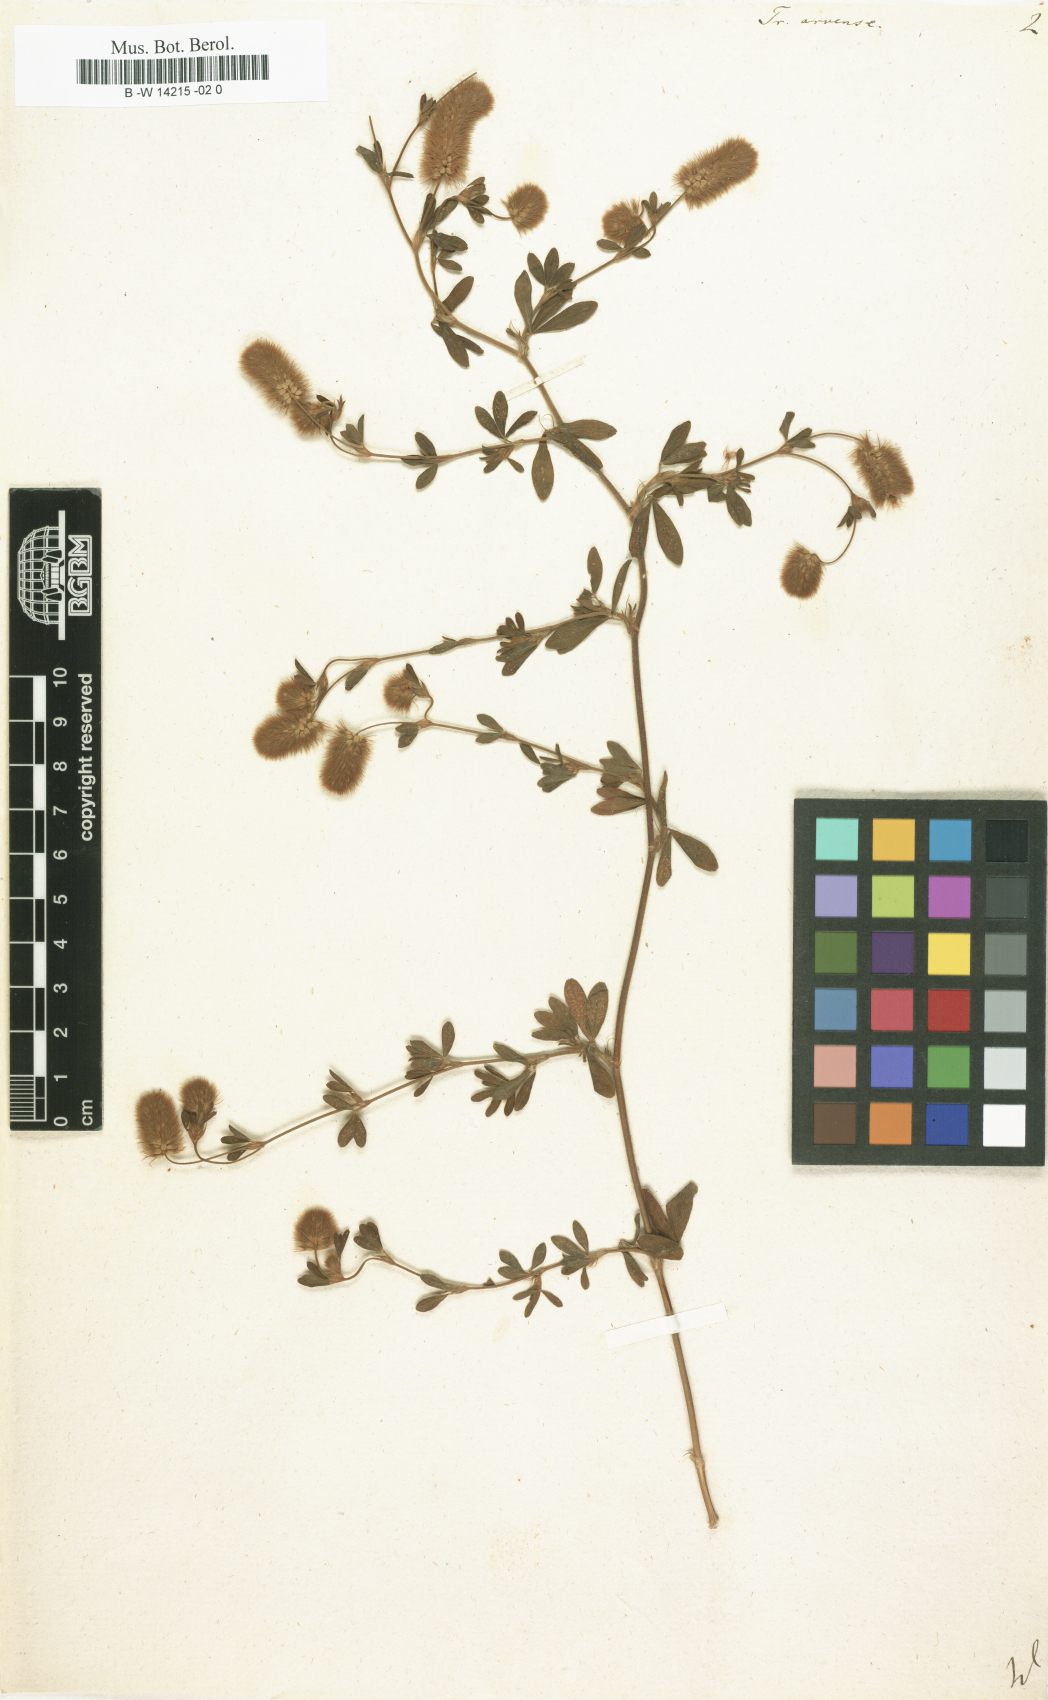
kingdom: Plantae
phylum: Tracheophyta
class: Magnoliopsida
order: Fabales
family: Fabaceae
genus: Trifolium
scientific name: Trifolium arvense
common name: Hare's-foot clover
